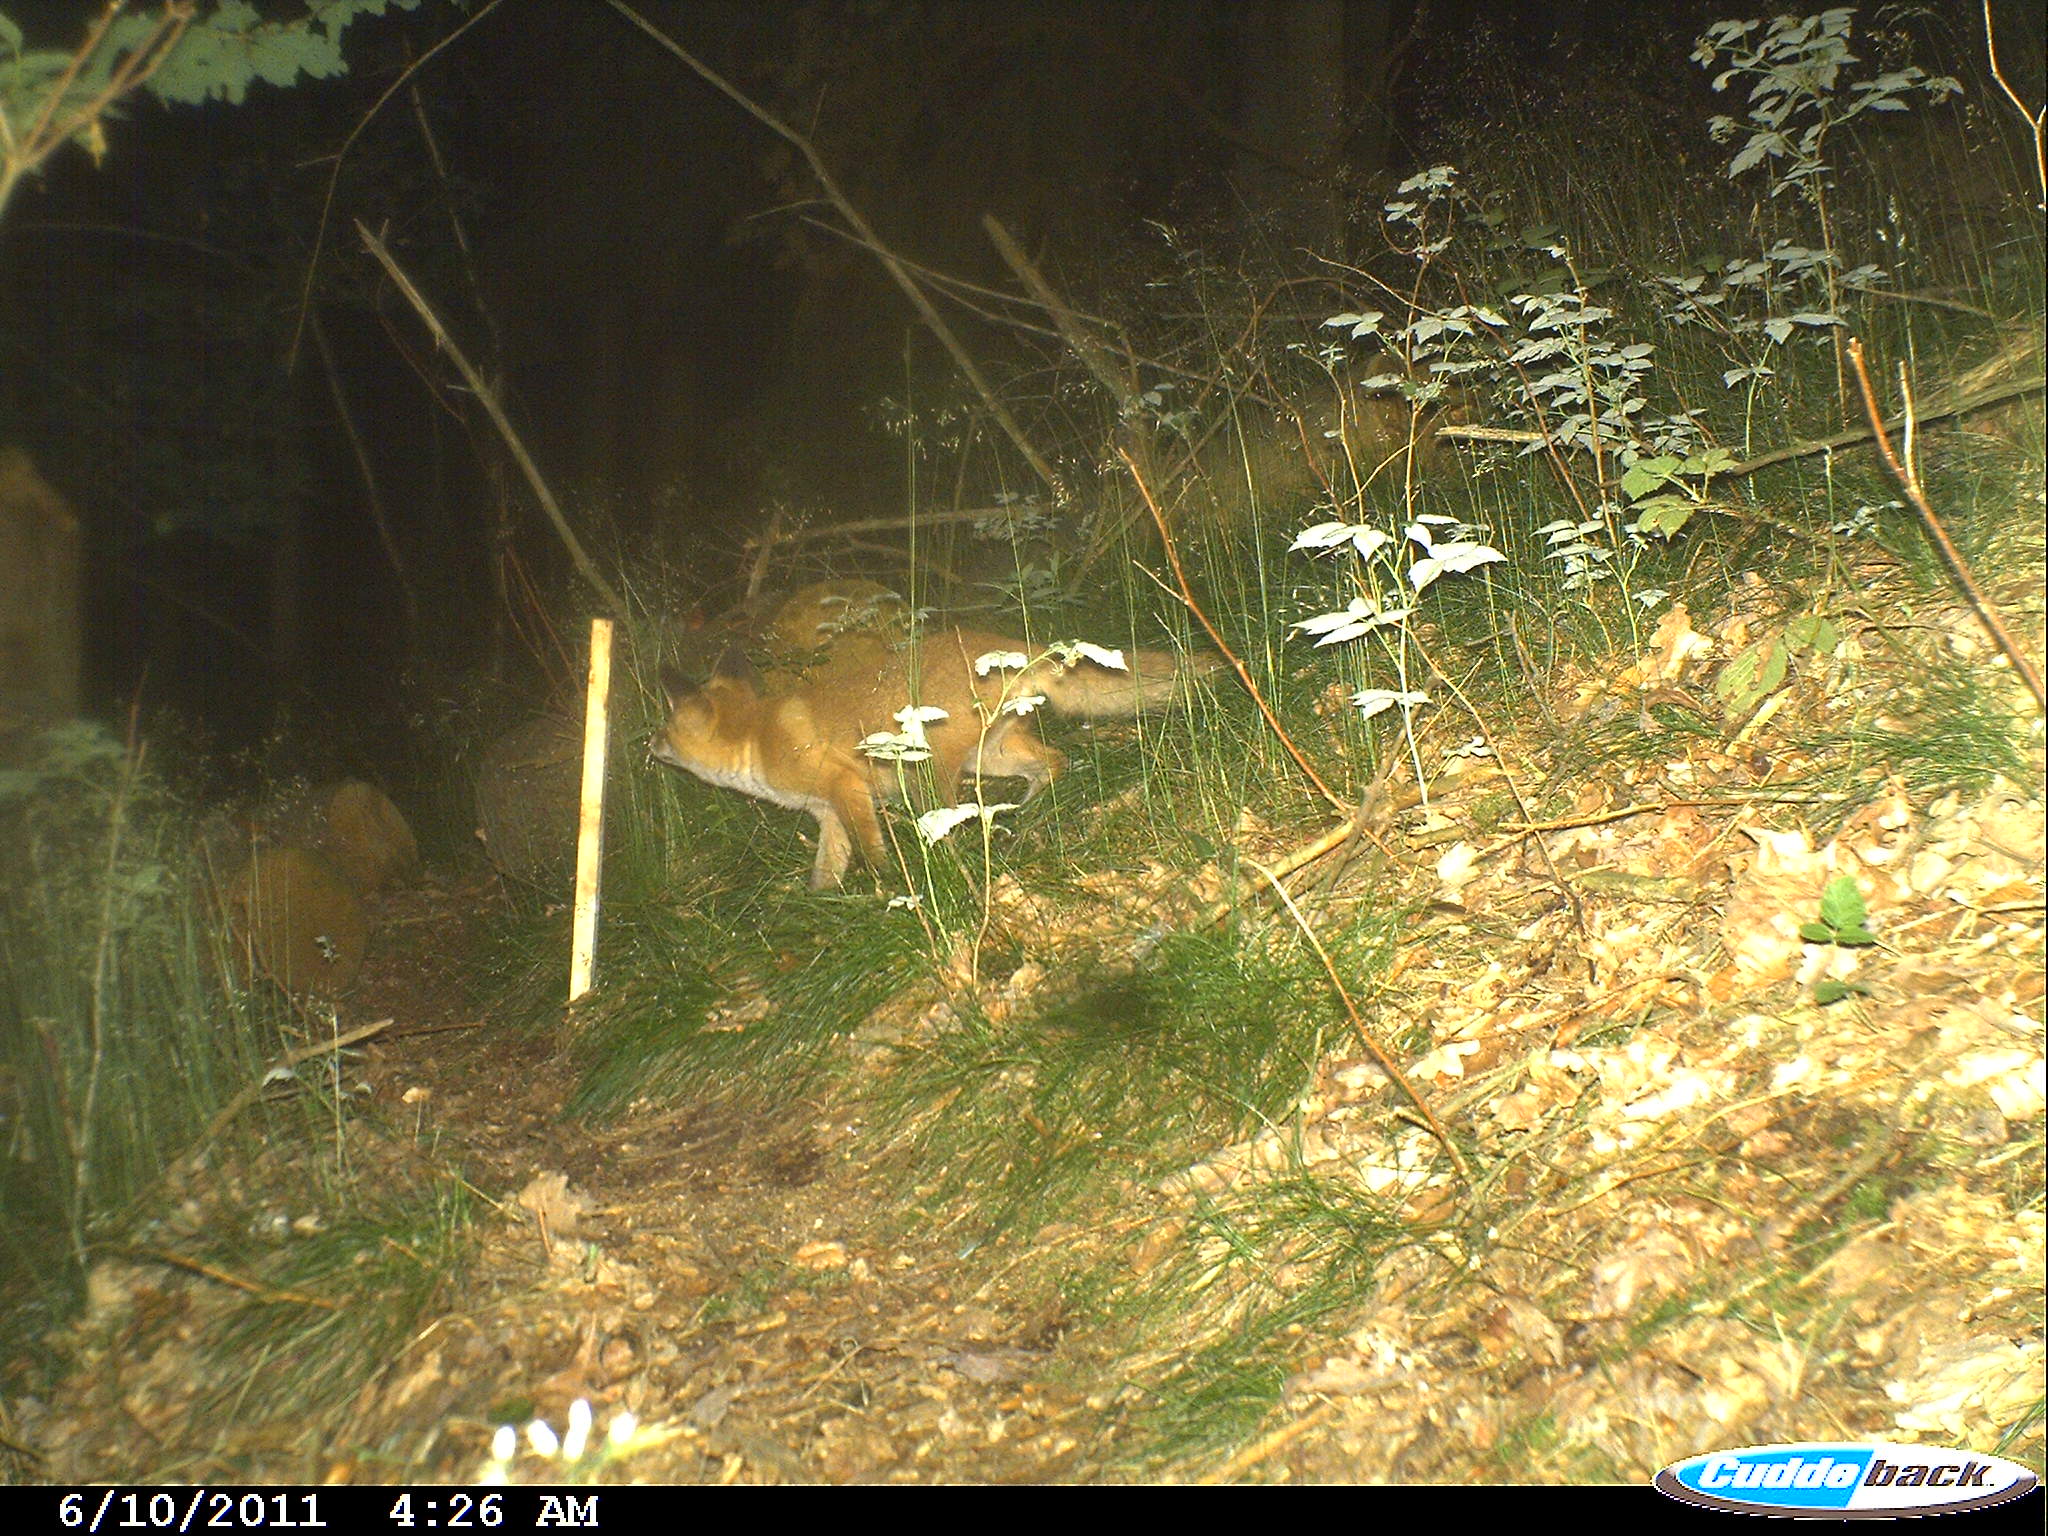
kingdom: Animalia
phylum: Chordata
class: Mammalia
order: Carnivora
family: Canidae
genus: Vulpes
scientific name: Vulpes vulpes
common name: Red fox
